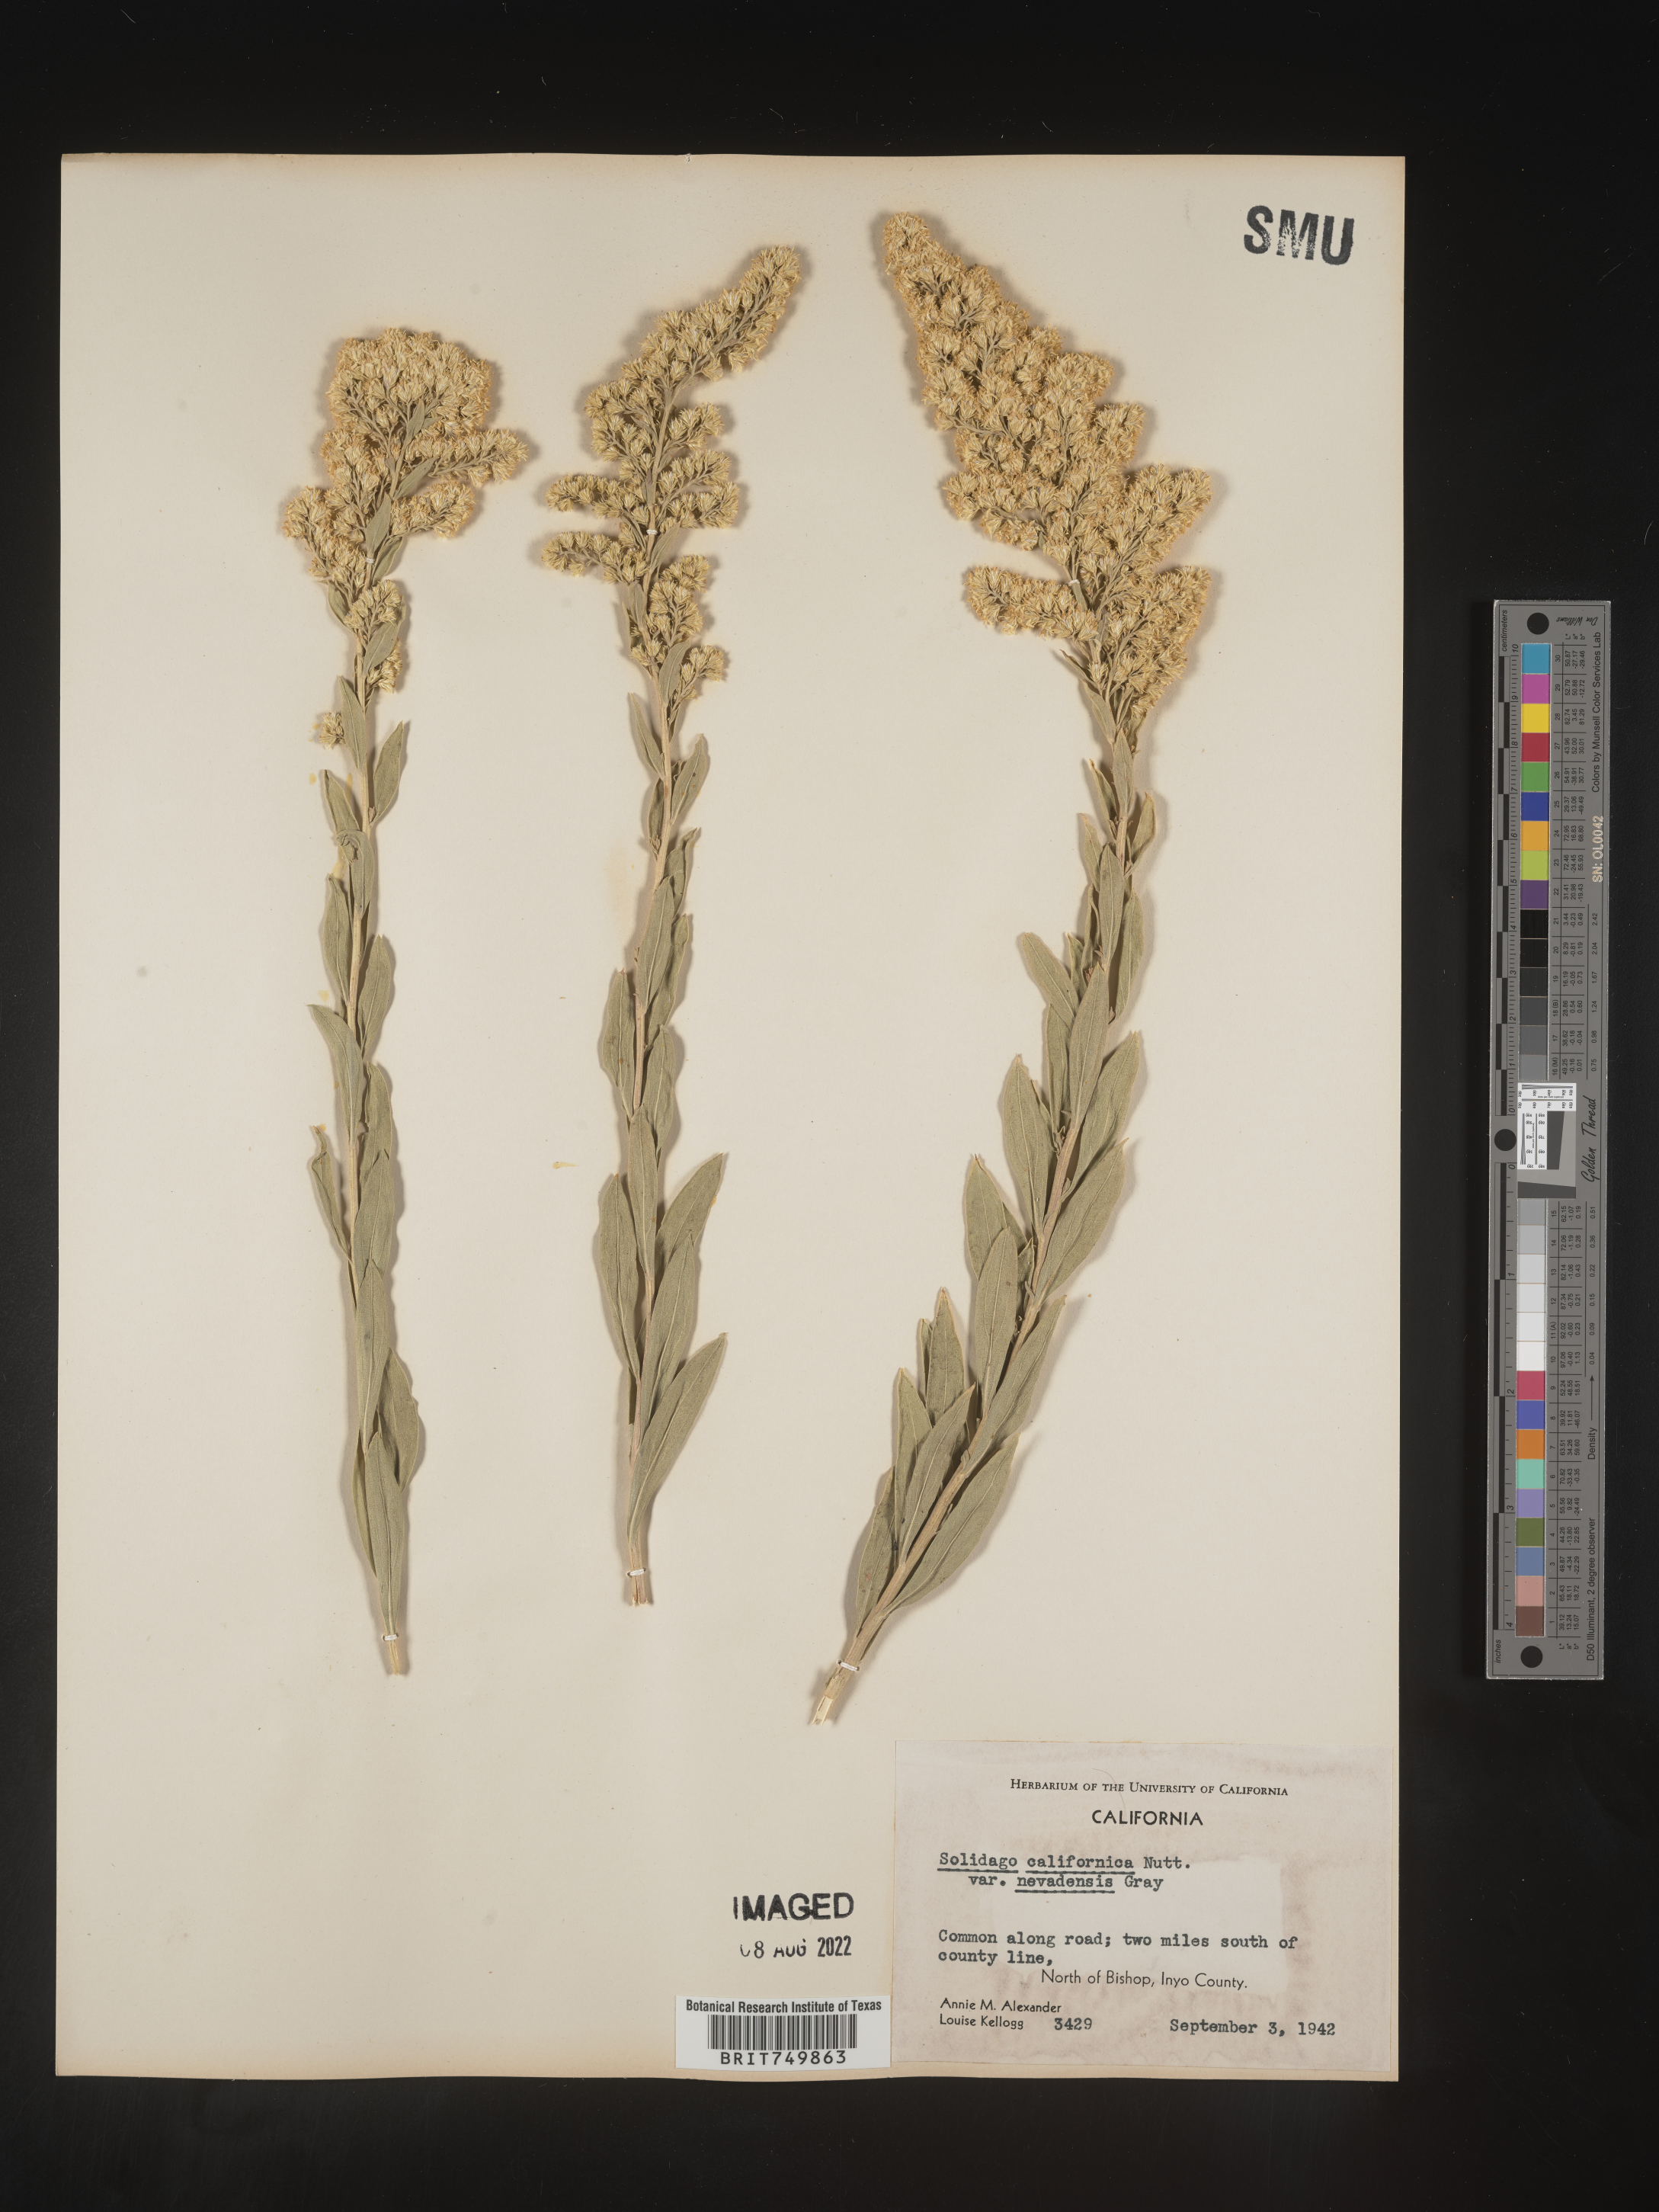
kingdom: Plantae
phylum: Tracheophyta
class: Magnoliopsida
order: Asterales
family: Asteraceae
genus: Solidago
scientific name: Solidago garrettii
